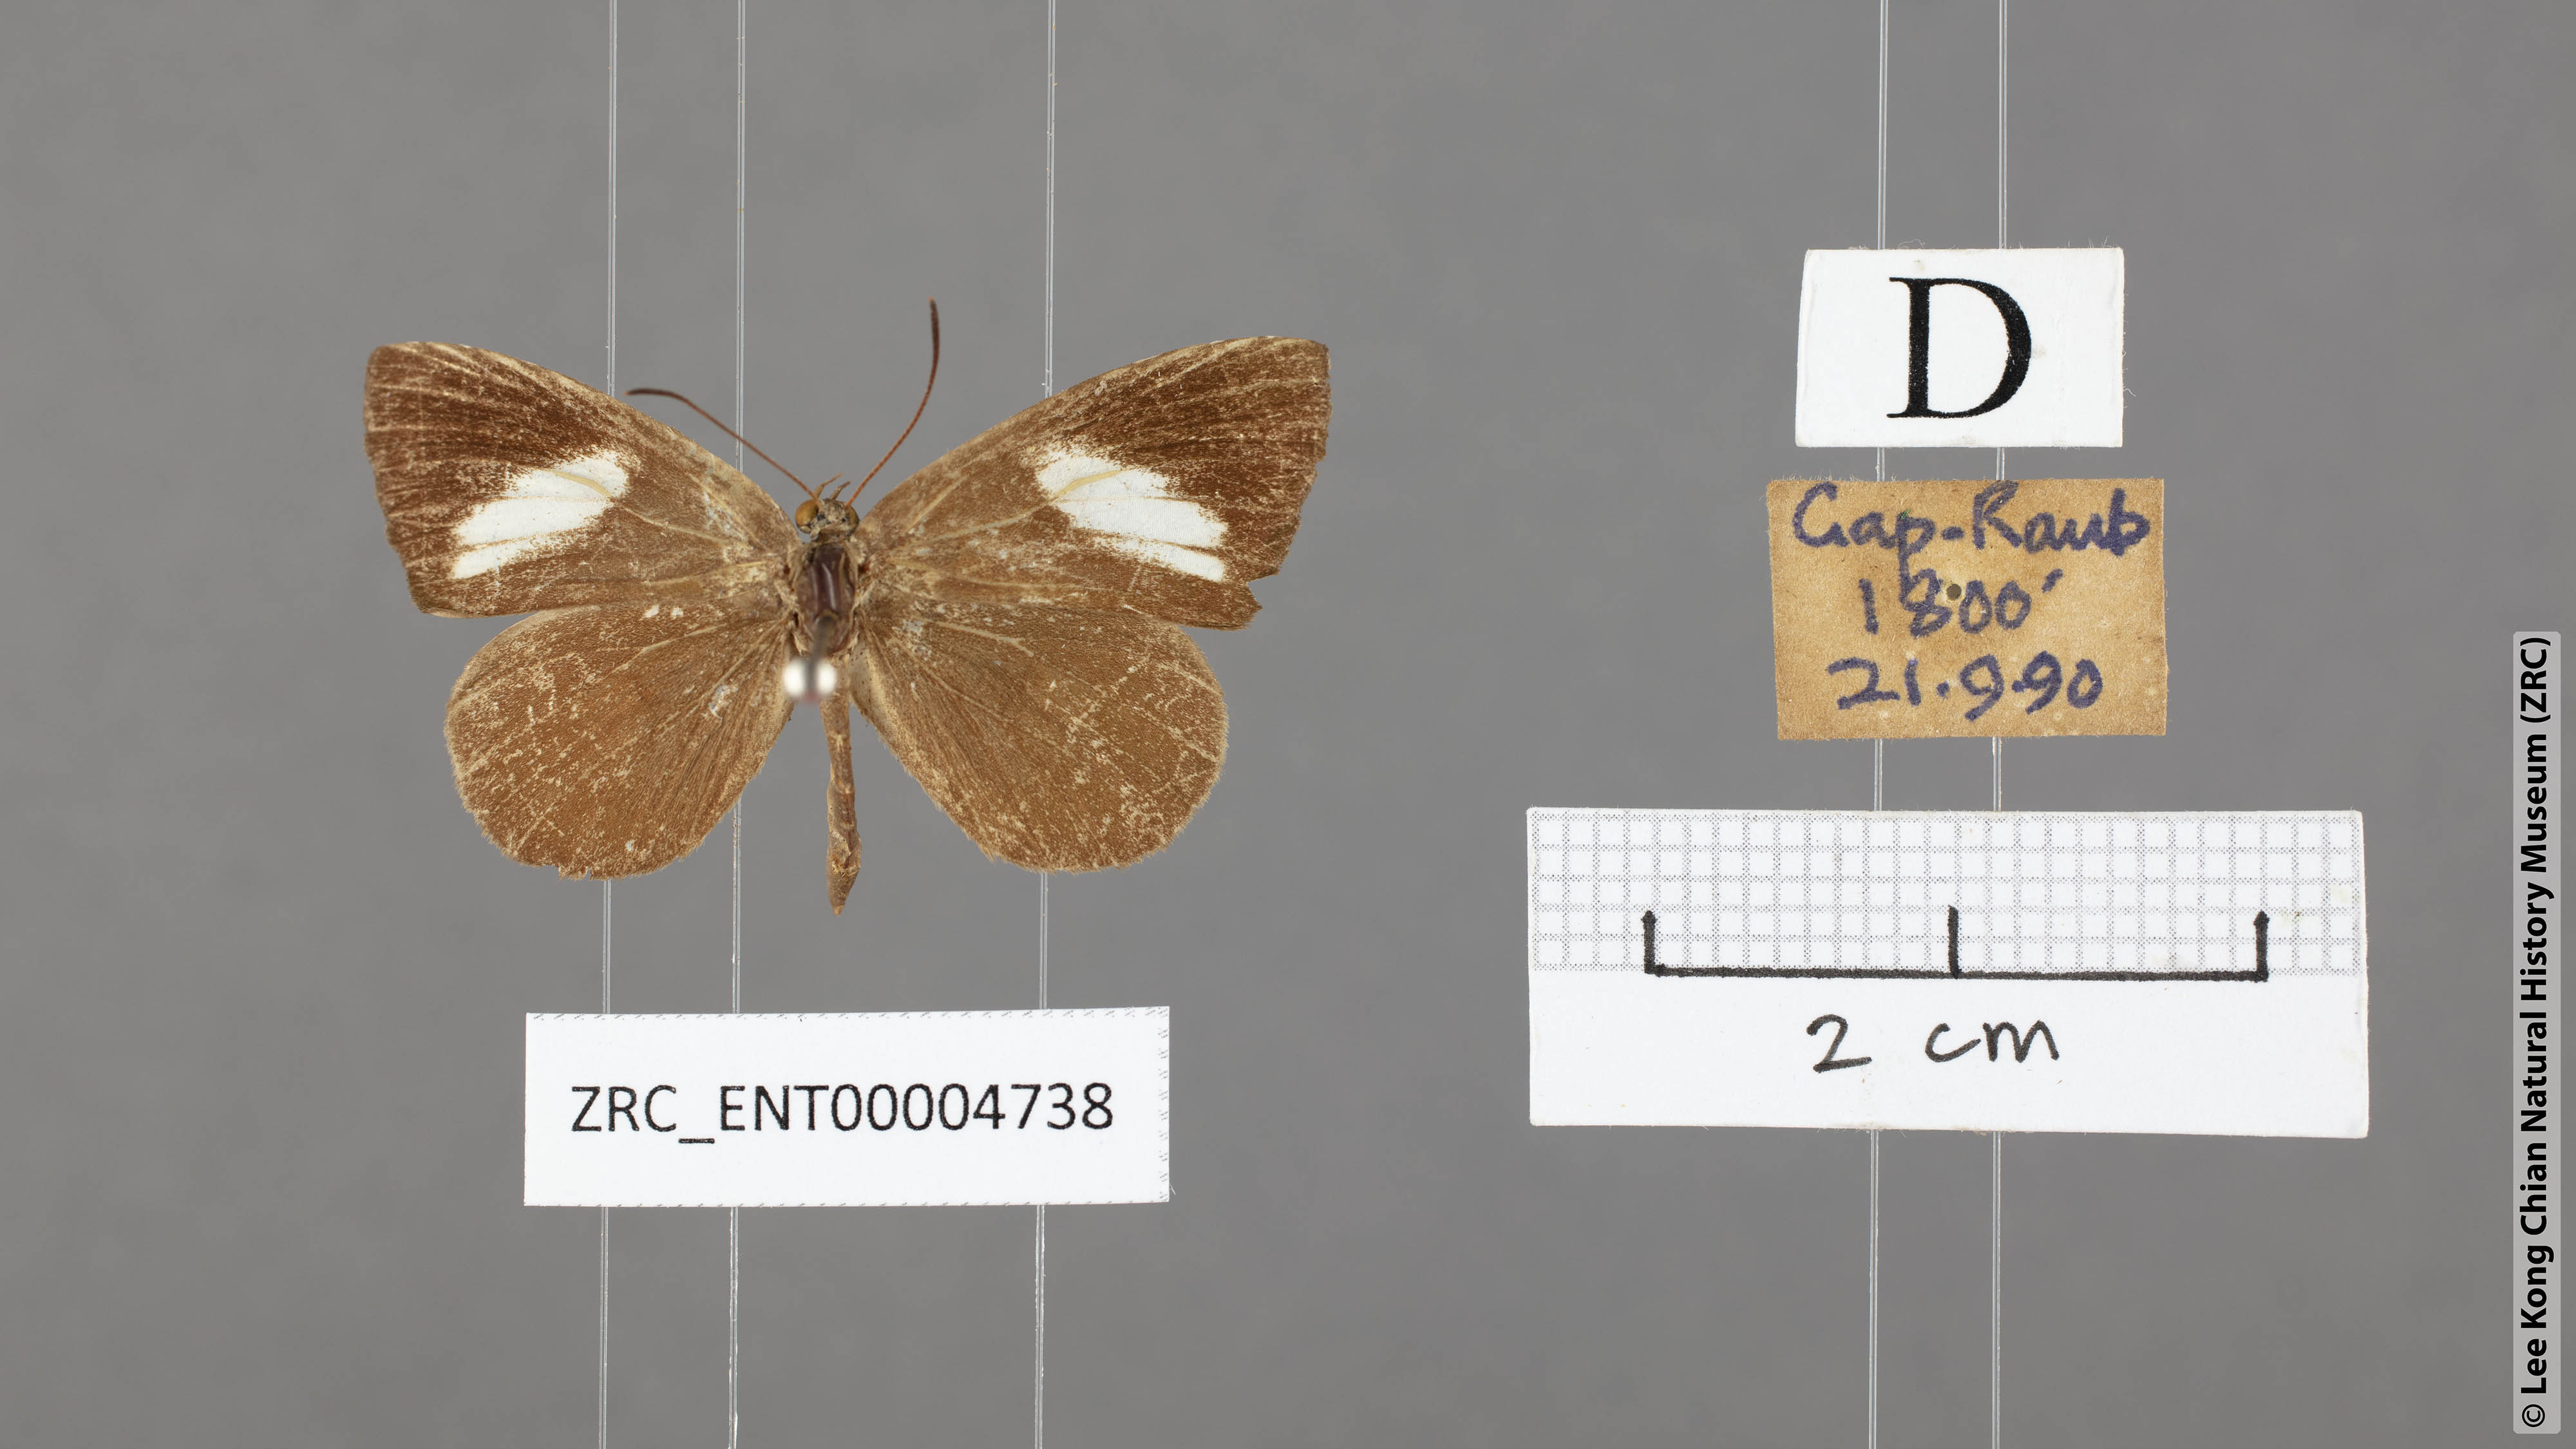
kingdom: Animalia
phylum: Arthropoda
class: Insecta
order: Lepidoptera
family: Lycaenidae
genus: Miletus
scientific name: Miletus nymphis
